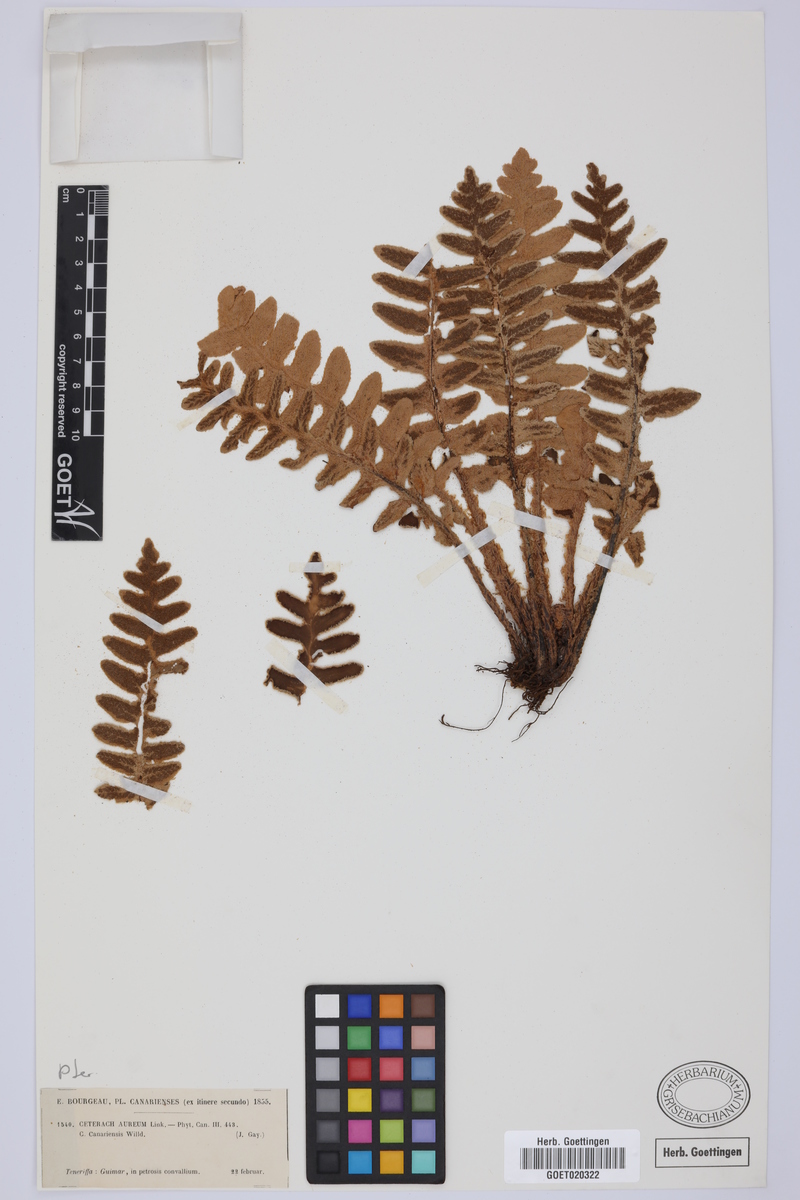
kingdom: Plantae
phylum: Tracheophyta
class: Polypodiopsida
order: Polypodiales
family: Aspleniaceae
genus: Asplenium
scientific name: Asplenium aureum
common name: Golden rustyback fern
